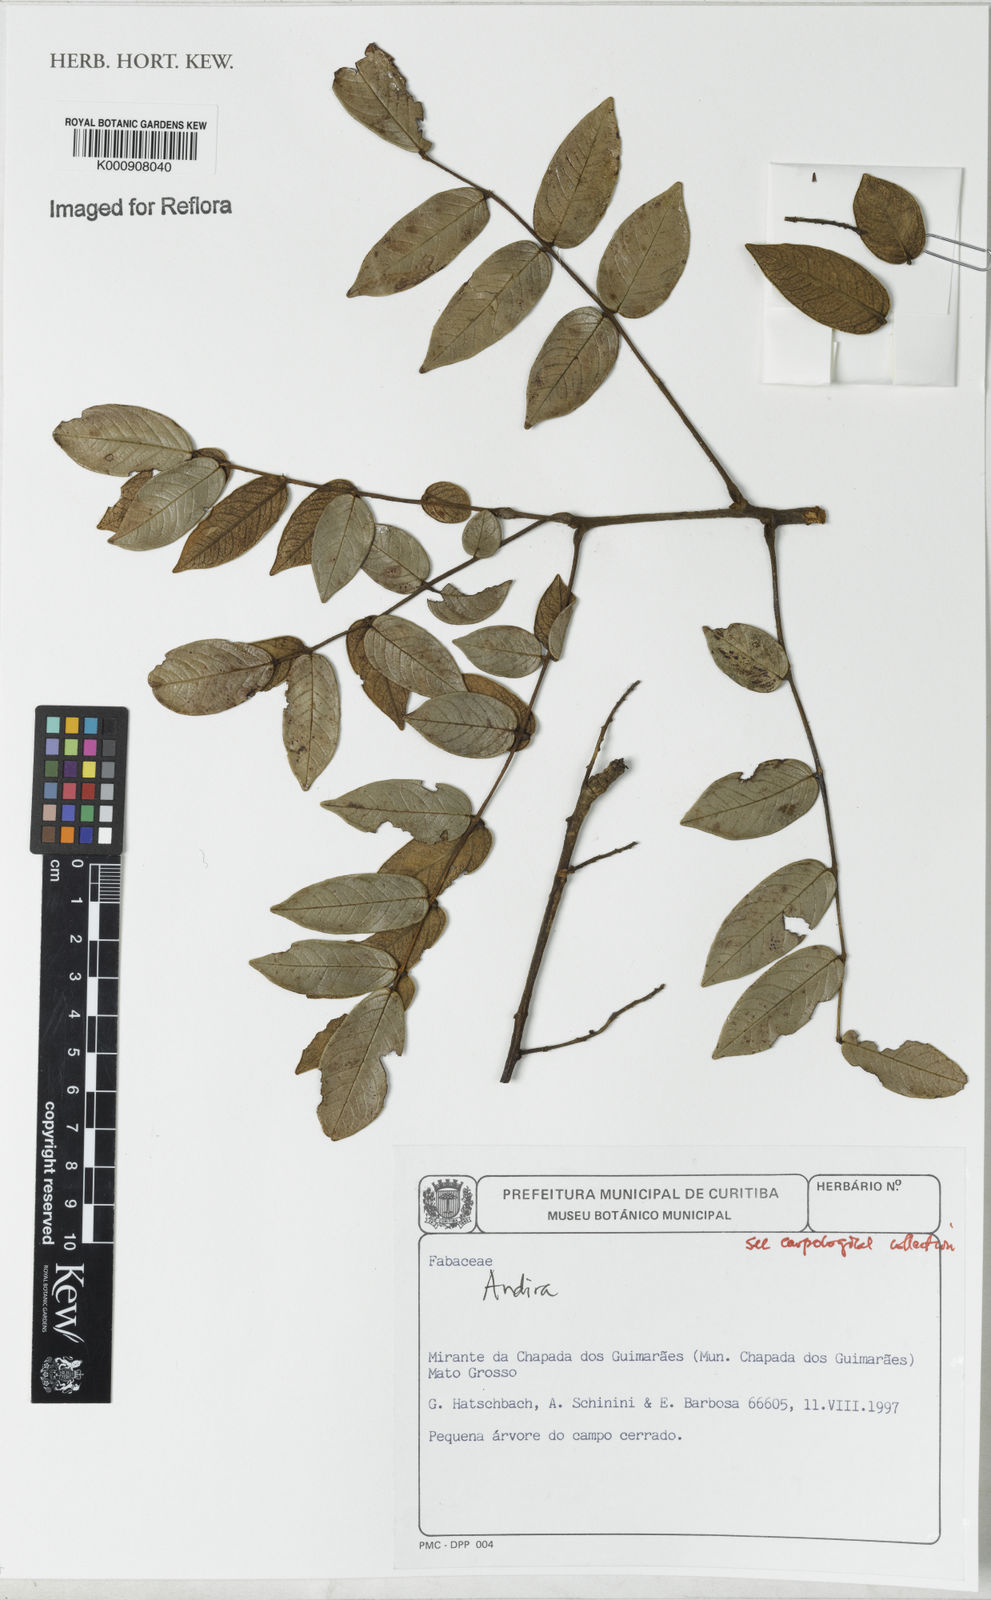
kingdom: Plantae
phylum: Tracheophyta
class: Magnoliopsida
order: Fabales
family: Fabaceae
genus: Andira
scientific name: Andira
